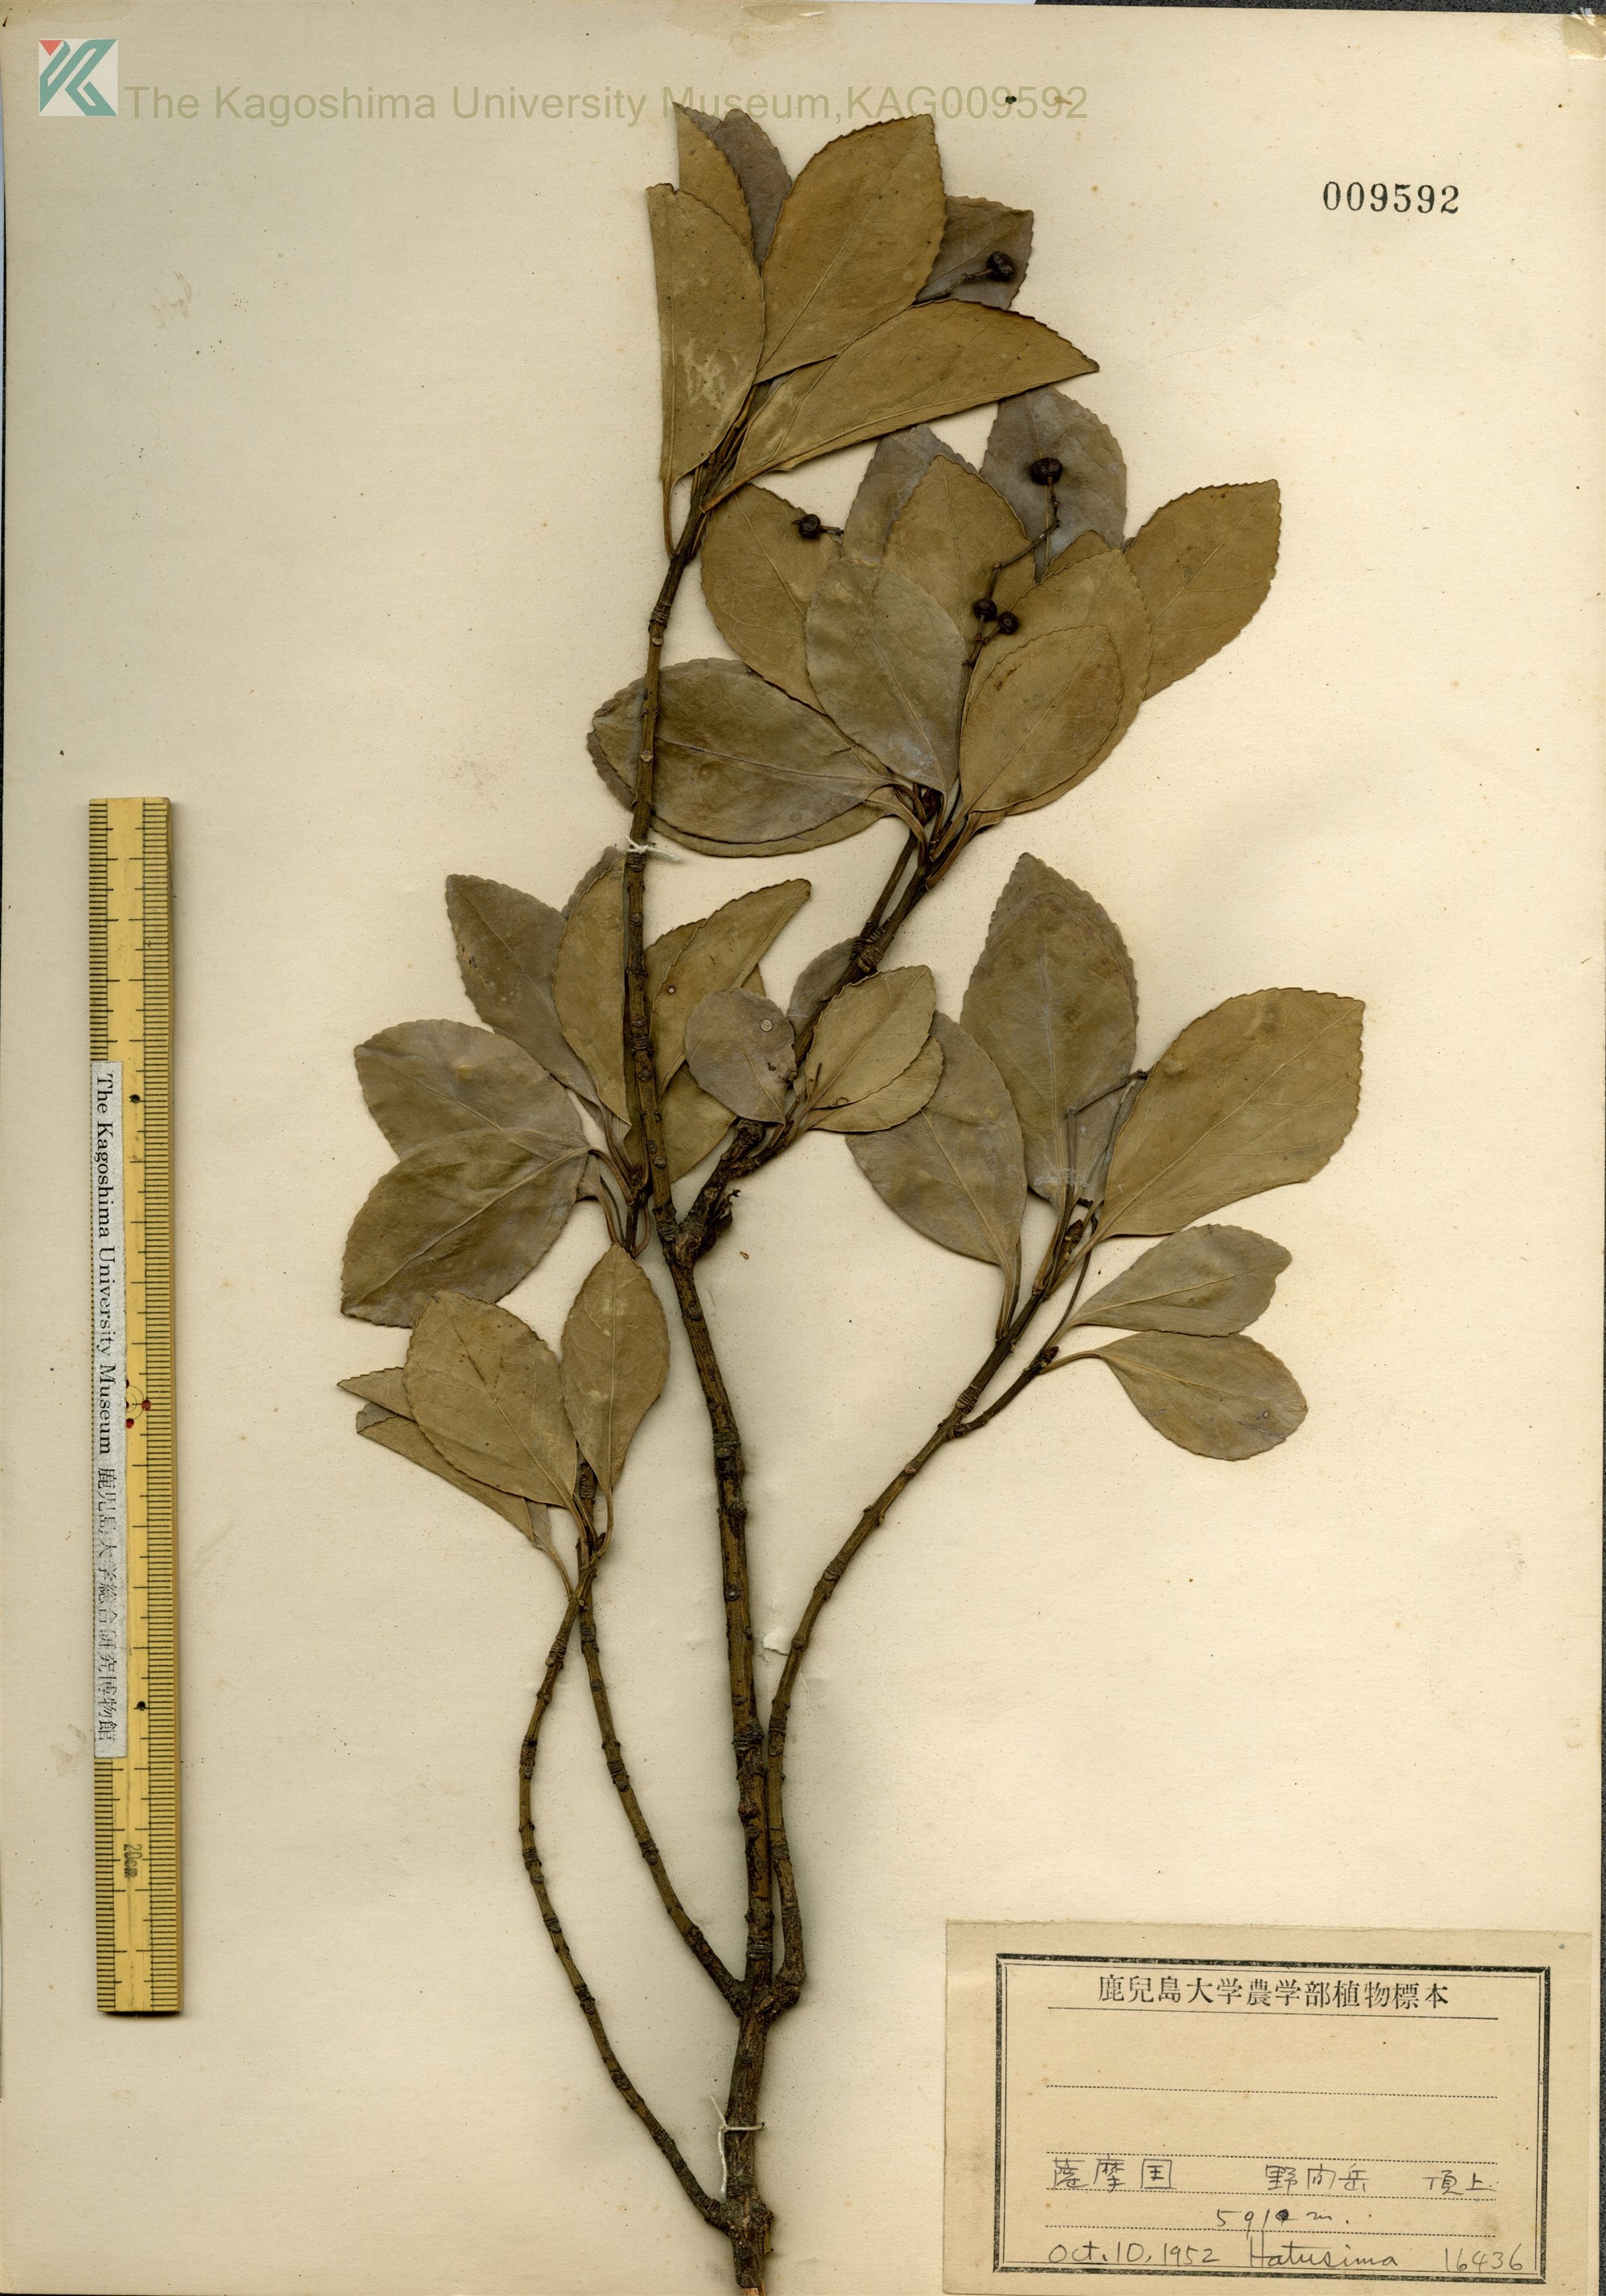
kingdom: Plantae
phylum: Tracheophyta
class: Magnoliopsida
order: Celastrales
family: Celastraceae
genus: Euonymus
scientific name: Euonymus japonicus
